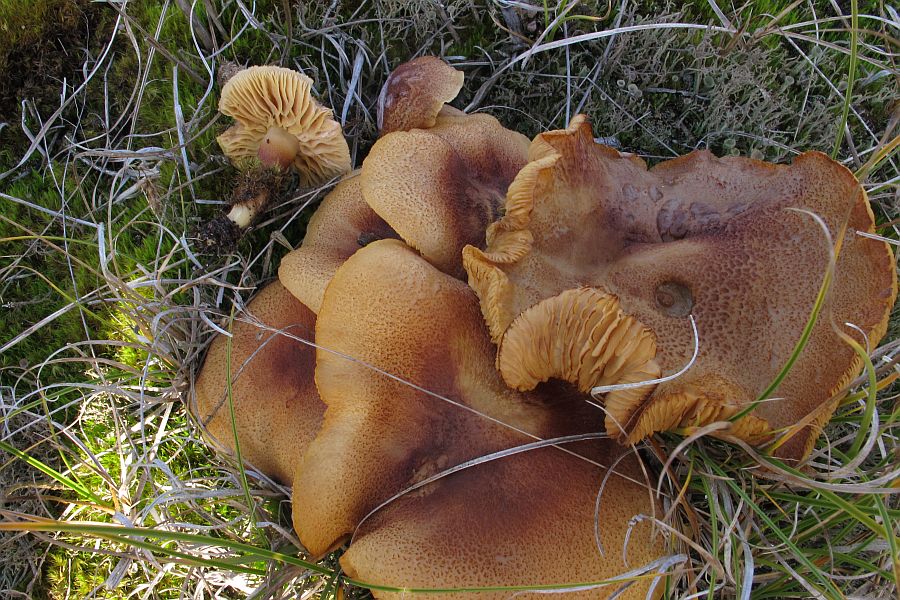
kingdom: Fungi
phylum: Basidiomycota
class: Agaricomycetes
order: Agaricales
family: Tricholomataceae
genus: Tricholomopsis
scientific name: Tricholomopsis rutilans
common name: purpur-væbnerhat
